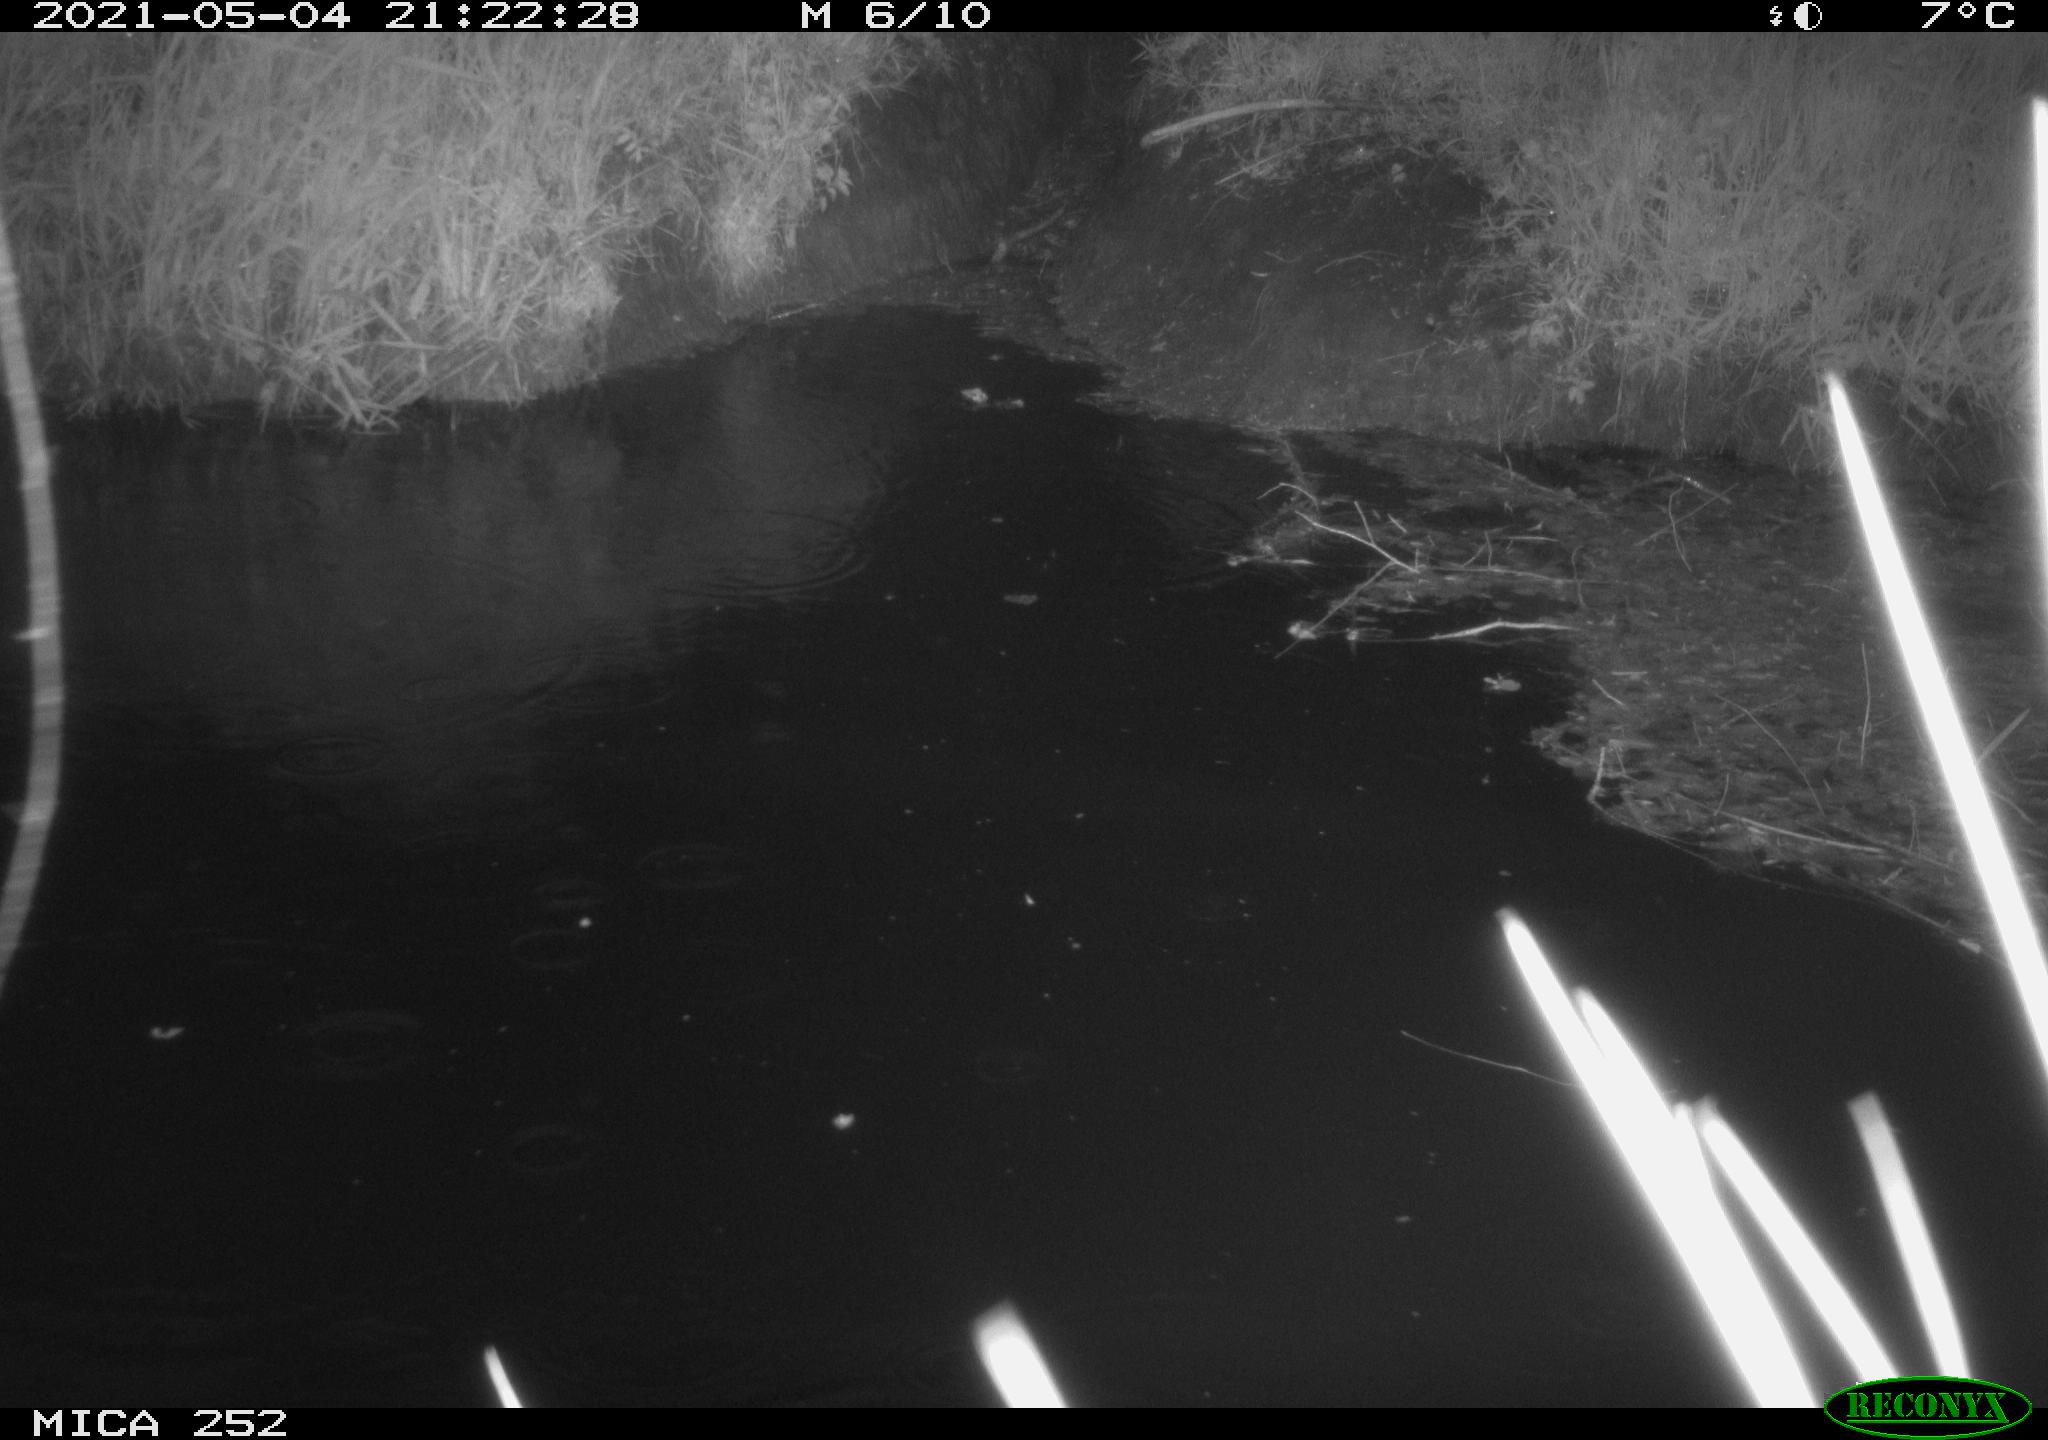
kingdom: Animalia
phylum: Chordata
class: Aves
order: Anseriformes
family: Anatidae
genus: Anas
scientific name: Anas platyrhynchos
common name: Mallard
